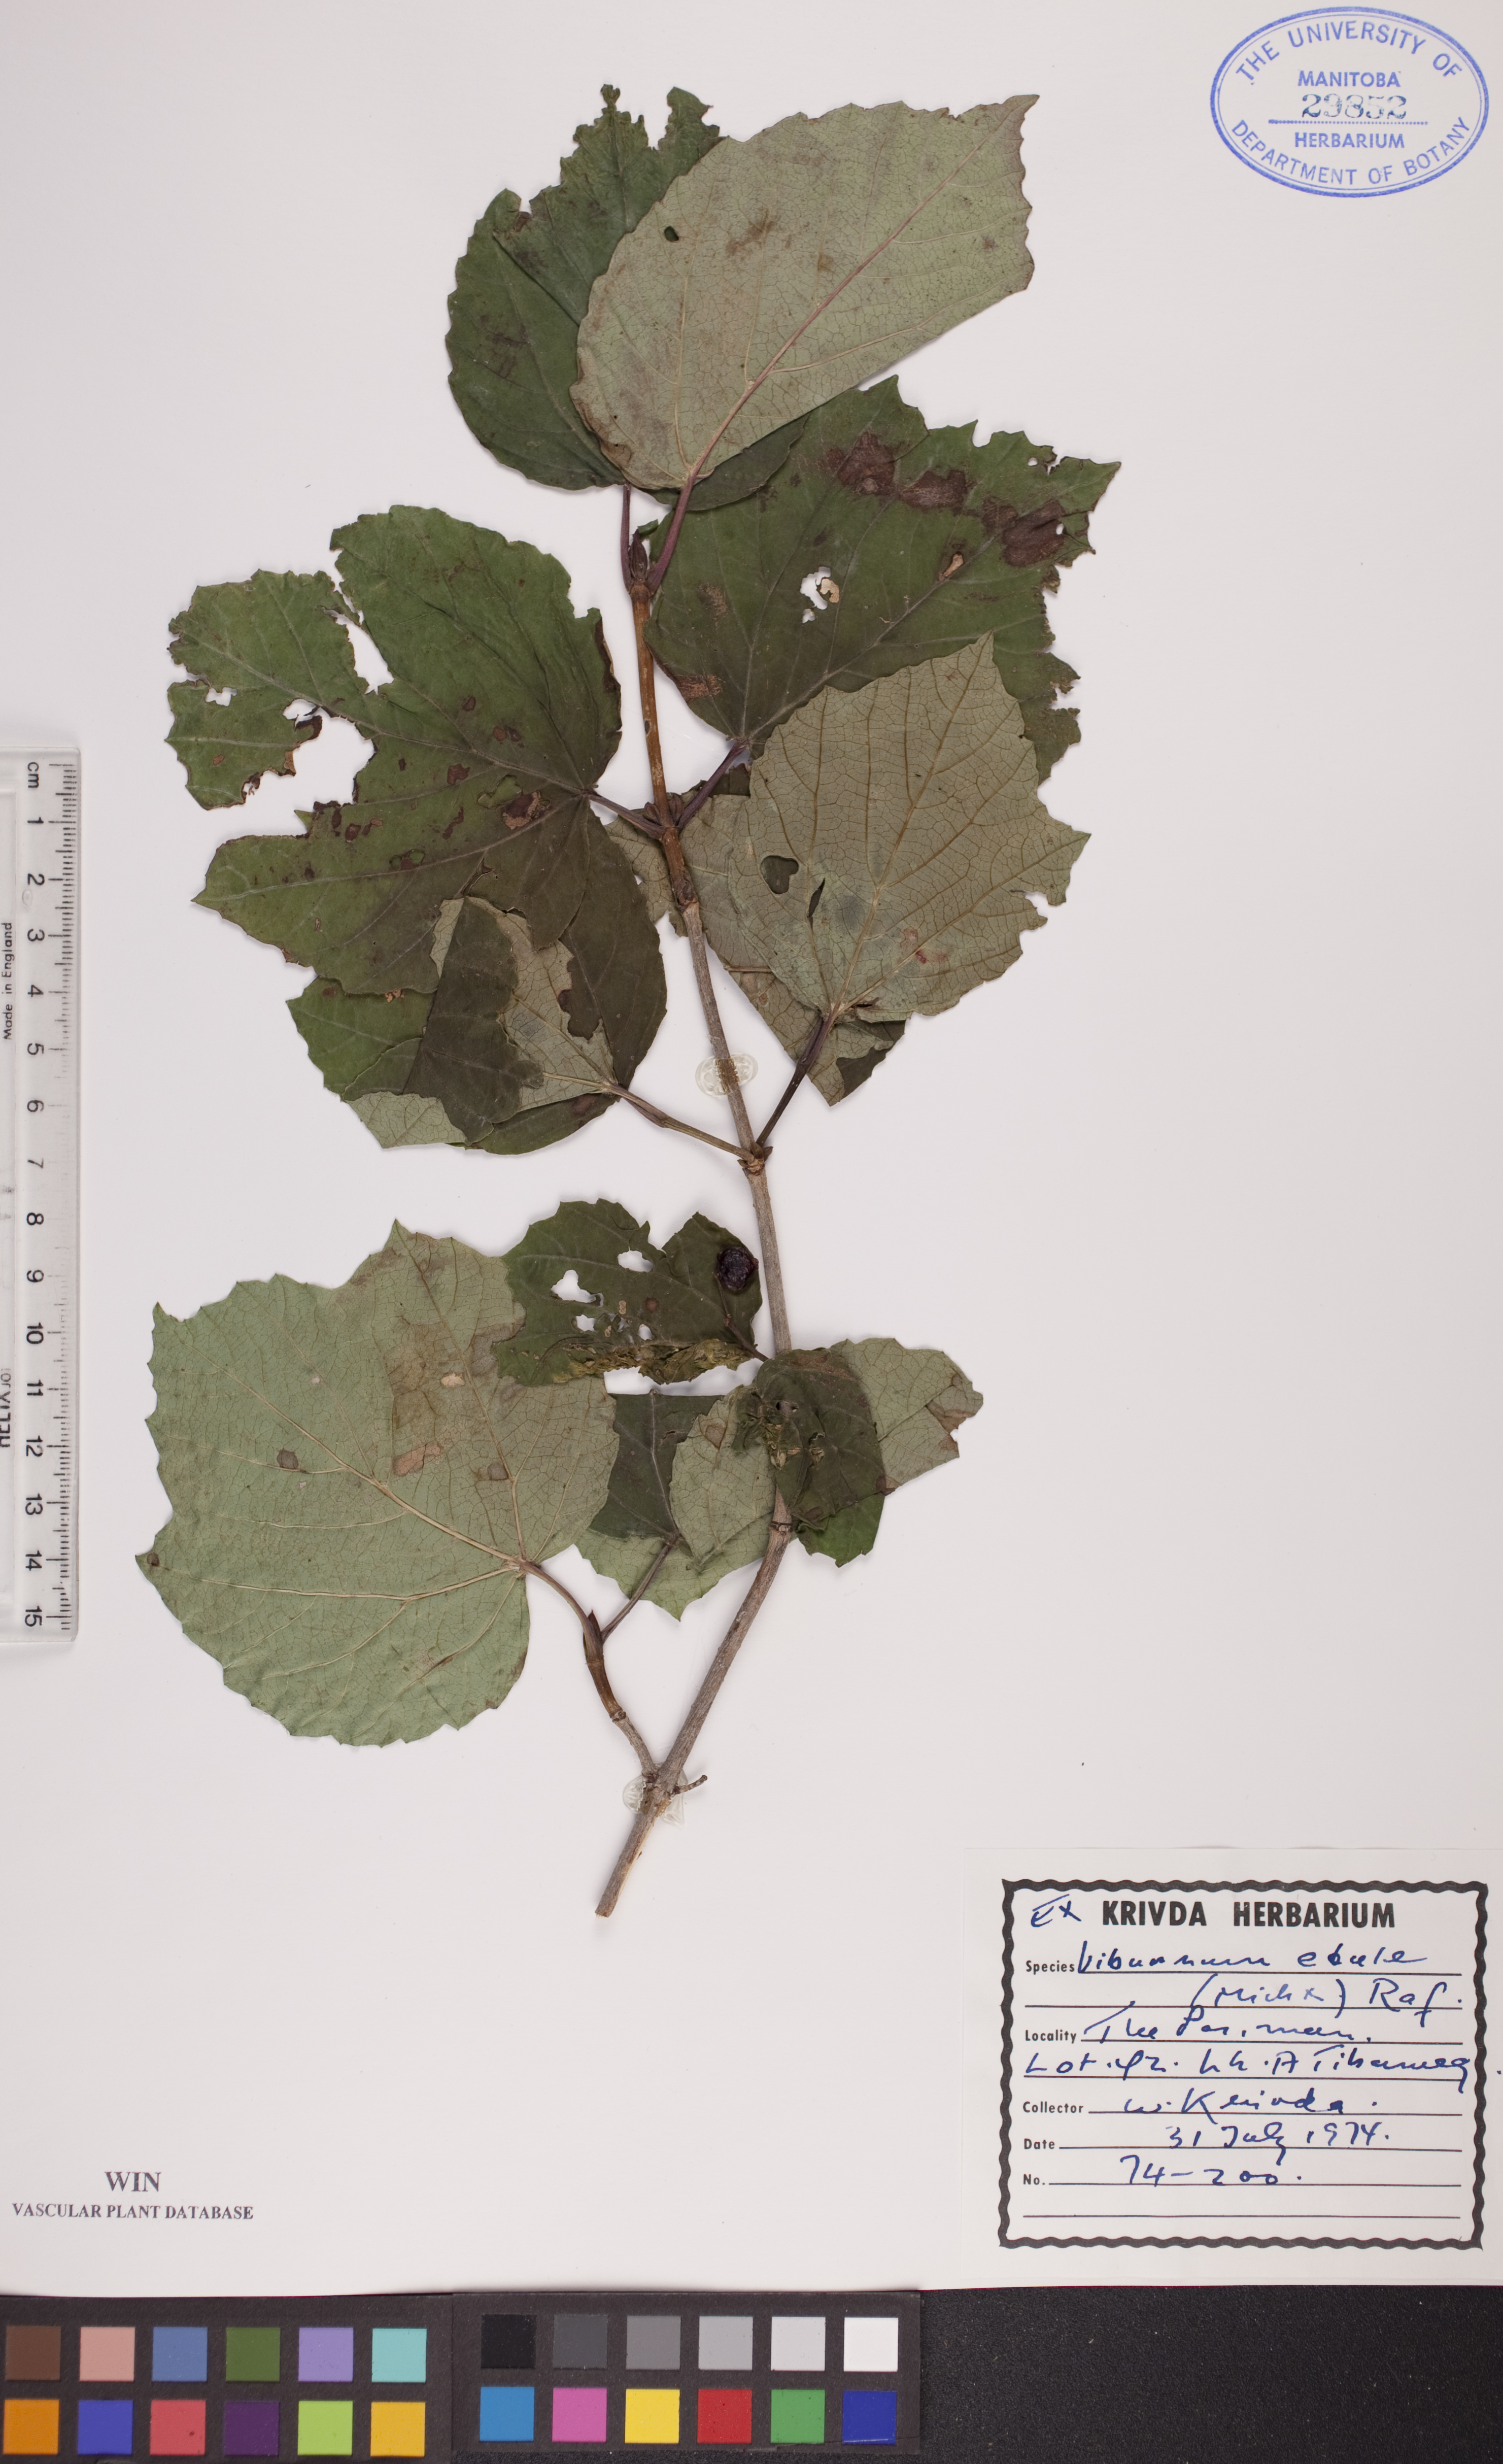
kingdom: Plantae
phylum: Tracheophyta
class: Magnoliopsida
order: Dipsacales
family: Viburnaceae
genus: Viburnum
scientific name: Viburnum edule
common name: Mooseberry
